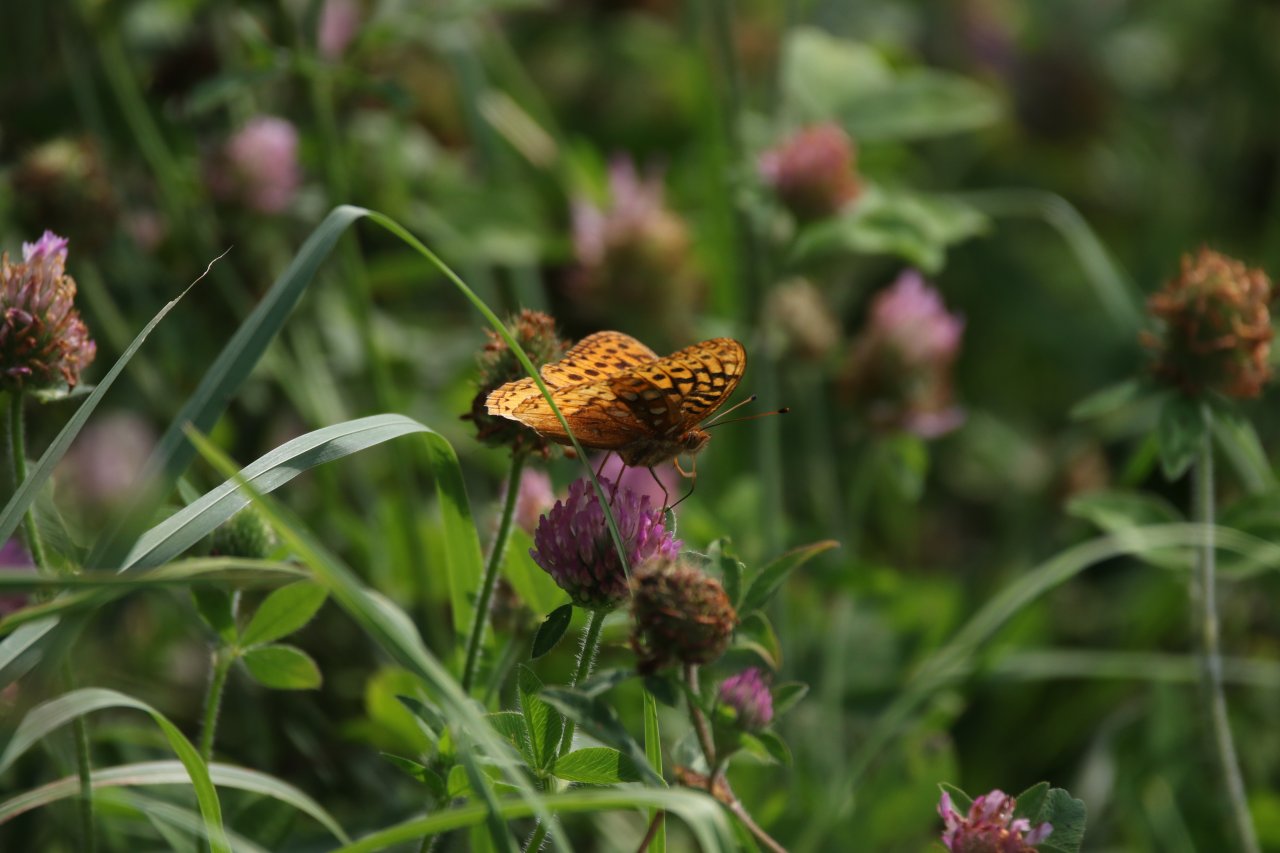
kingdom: Animalia
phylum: Arthropoda
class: Insecta
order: Lepidoptera
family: Nymphalidae
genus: Speyeria
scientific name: Speyeria cybele
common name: Great Spangled Fritillary
